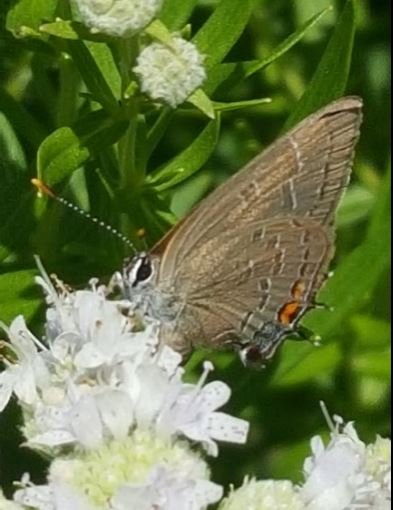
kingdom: Animalia
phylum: Arthropoda
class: Insecta
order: Lepidoptera
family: Lycaenidae
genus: Satyrium
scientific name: Satyrium calanus
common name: Banded Hairstreak
